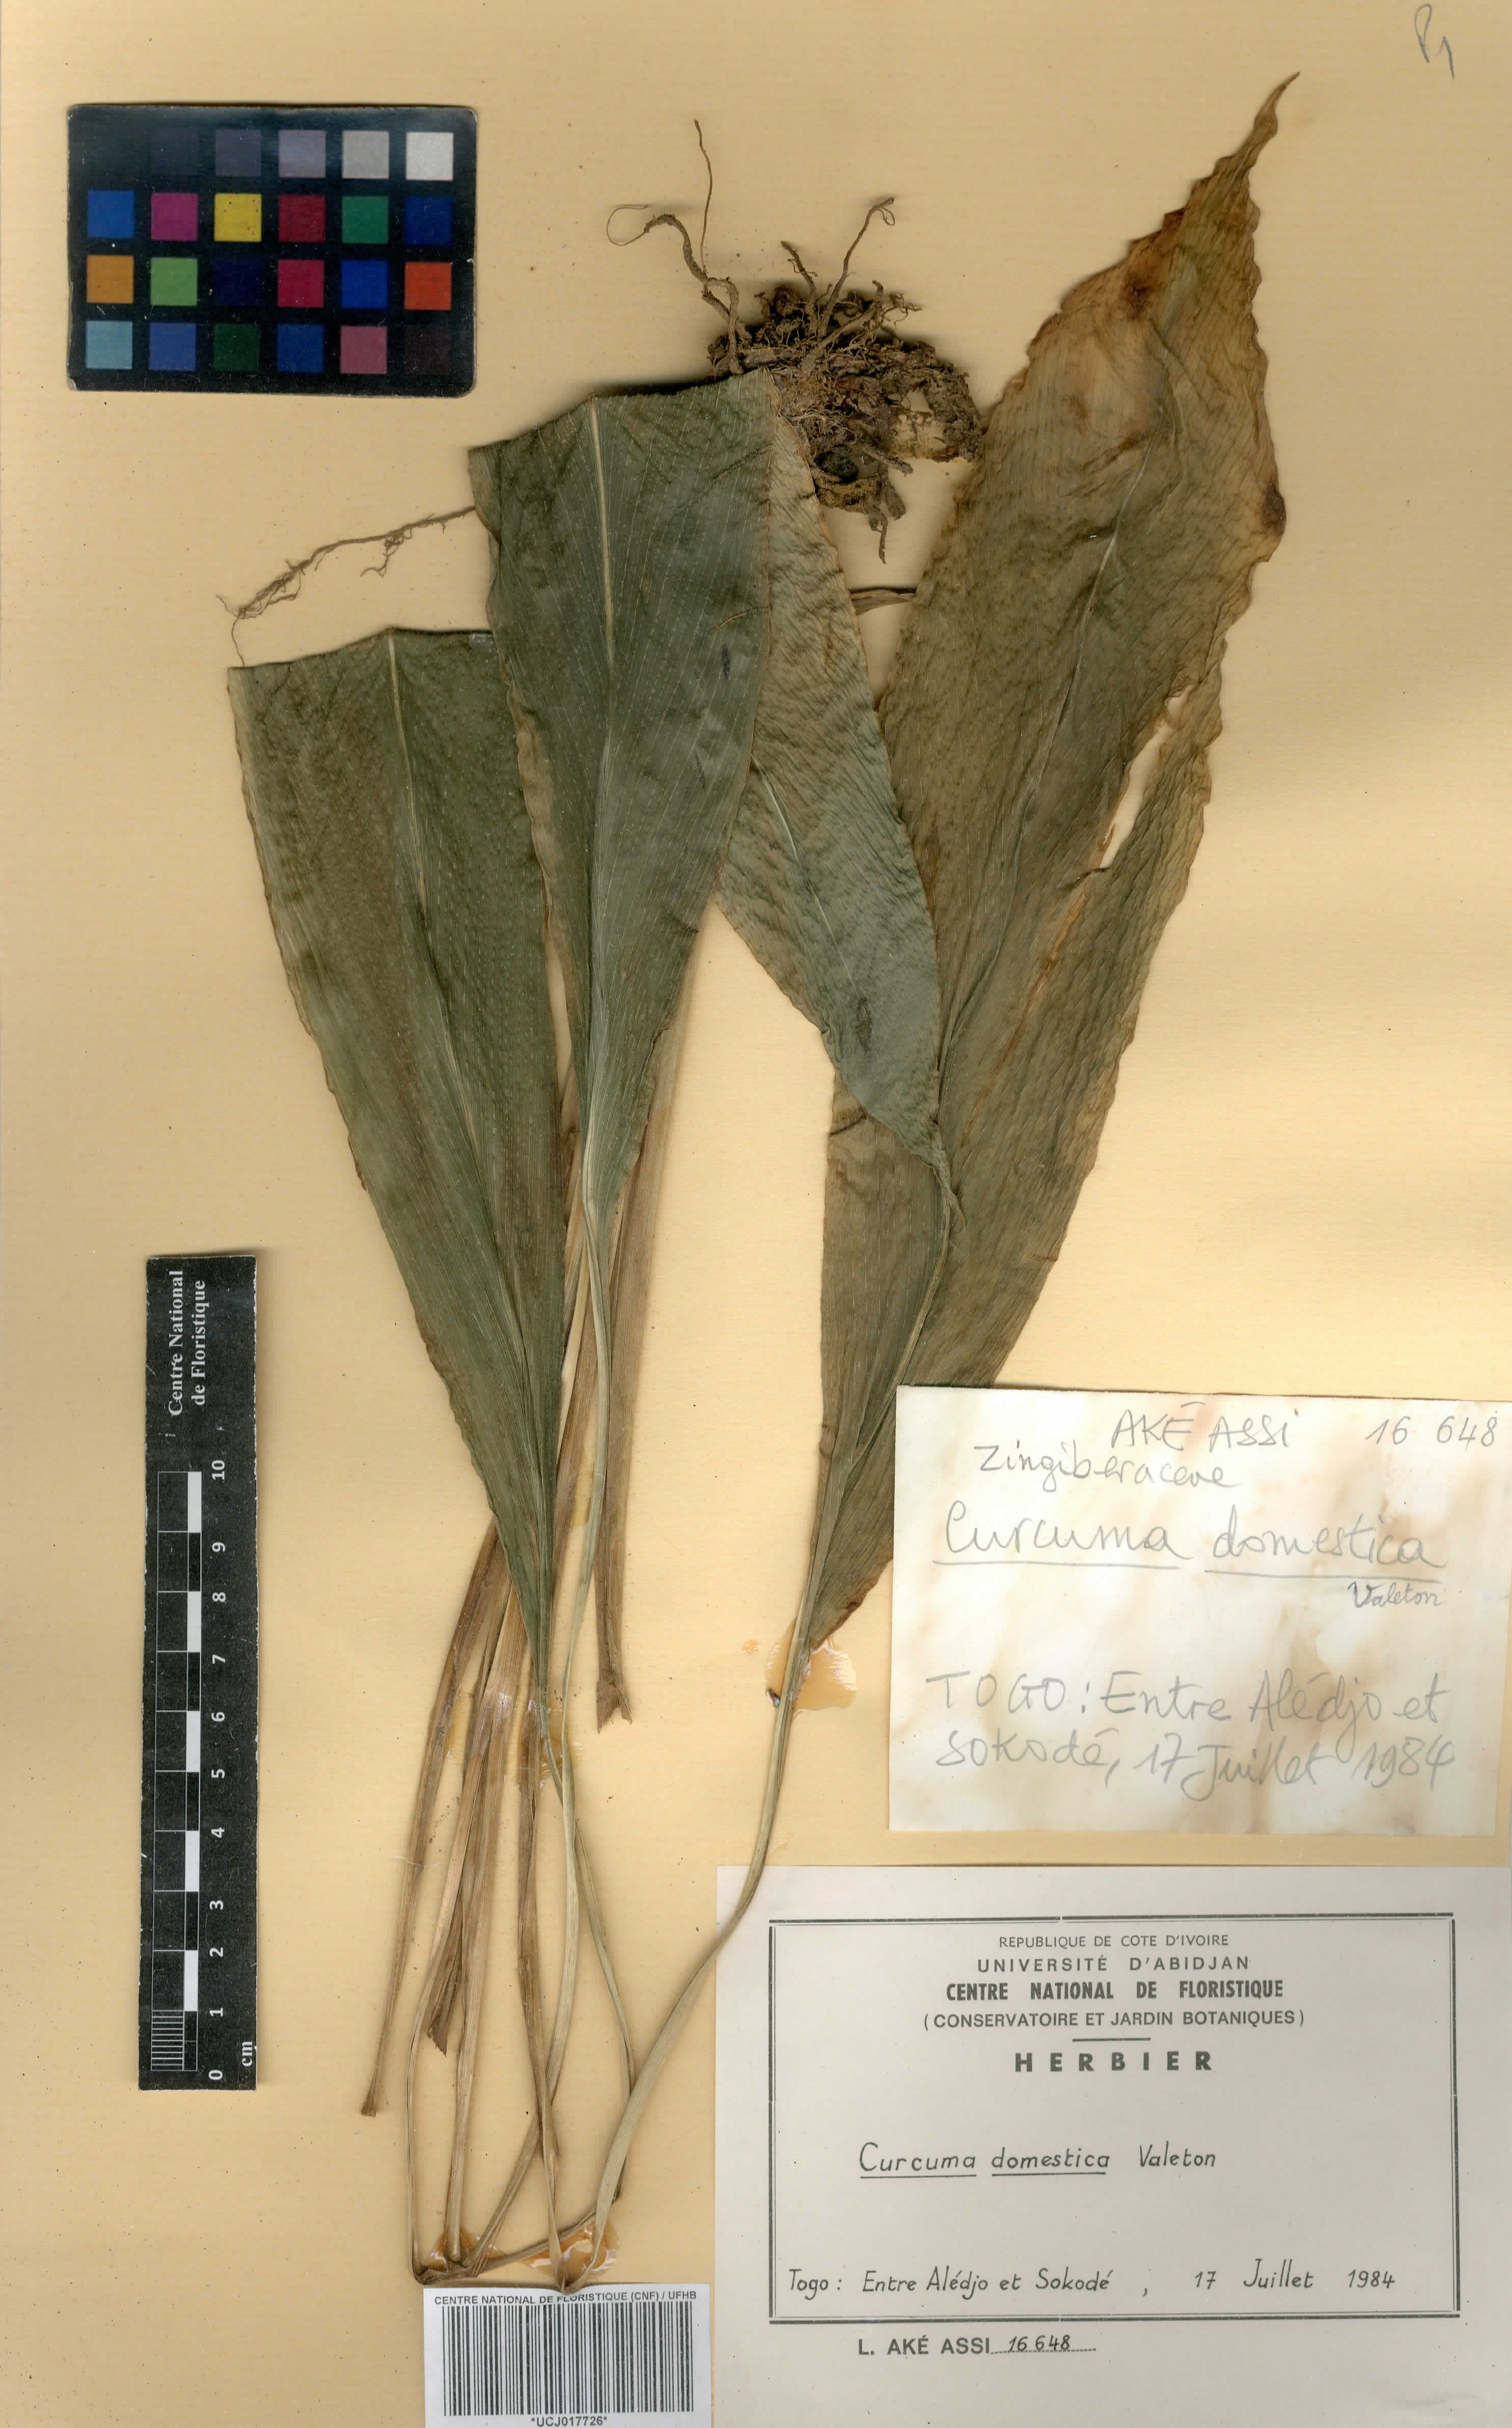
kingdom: Plantae
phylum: Tracheophyta
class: Liliopsida
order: Zingiberales
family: Zingiberaceae
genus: Curcuma
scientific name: Curcuma longa
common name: Turmeric
